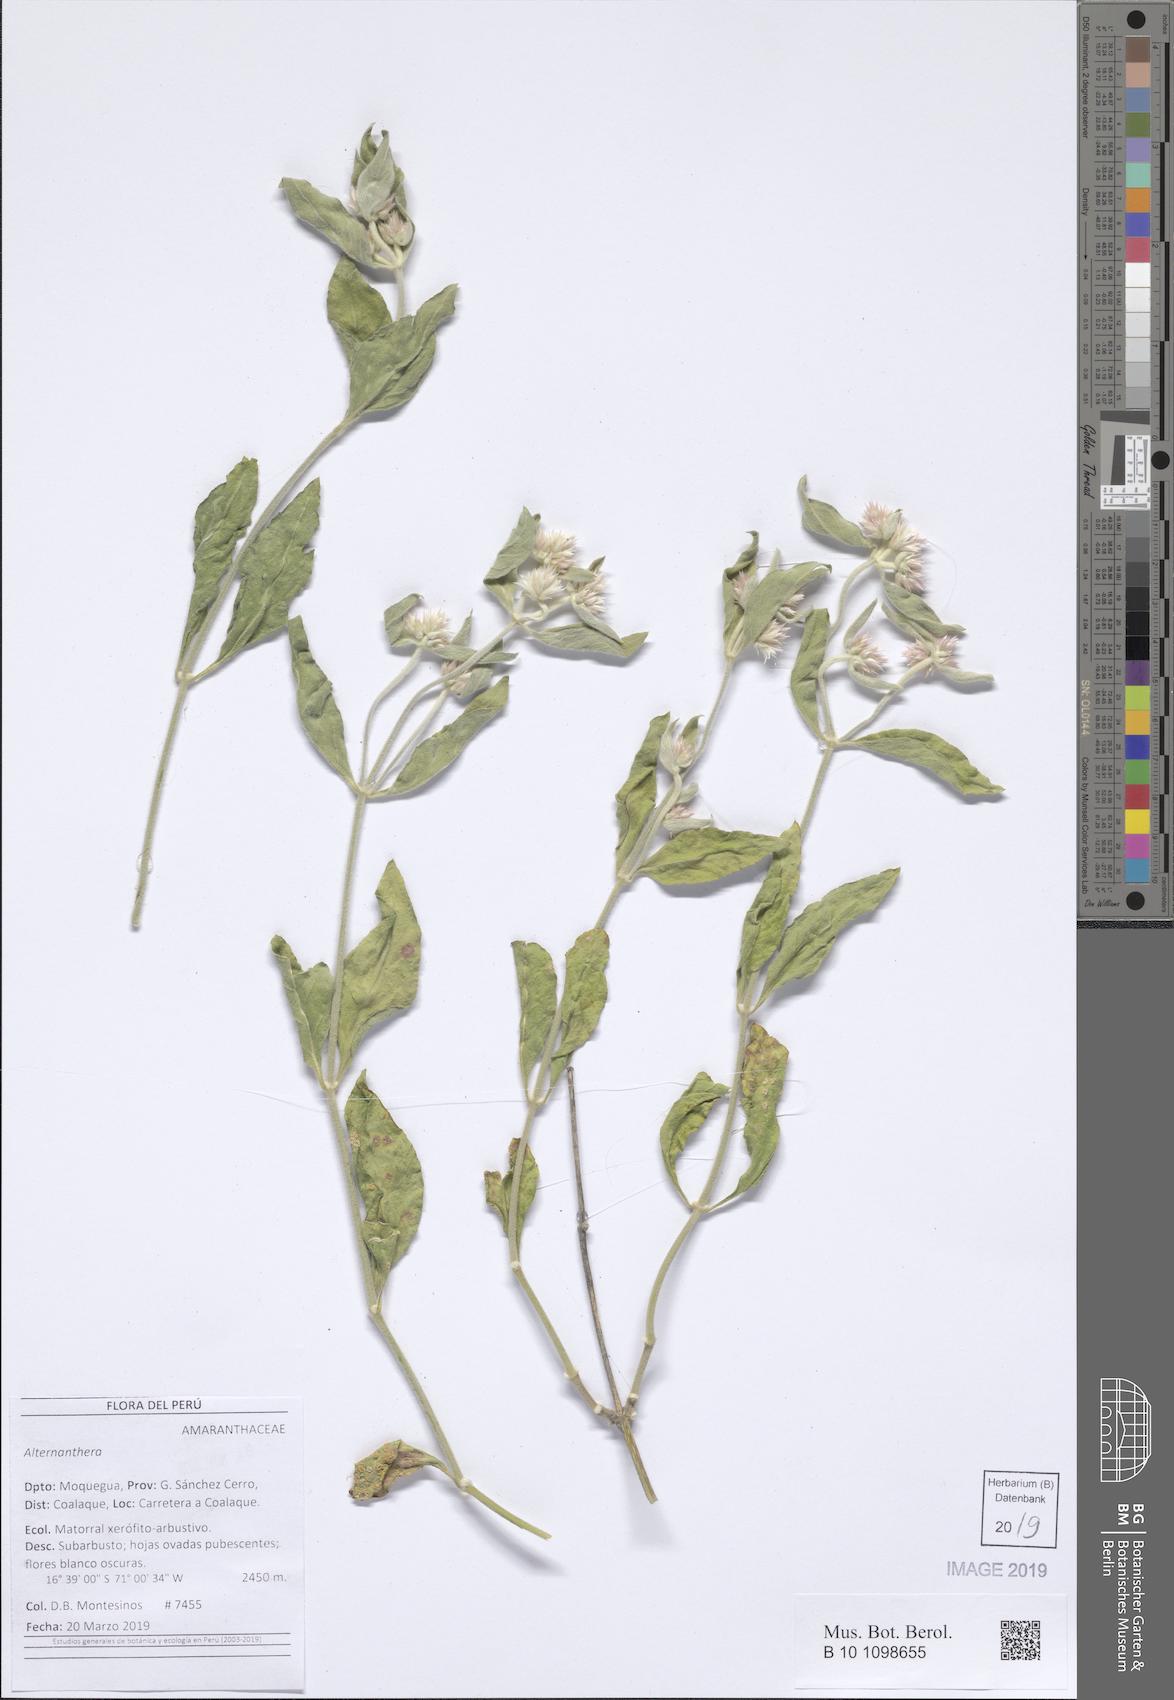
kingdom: Plantae
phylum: Tracheophyta
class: Magnoliopsida
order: Caryophyllales
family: Amaranthaceae
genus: Alternanthera
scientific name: Alternanthera
